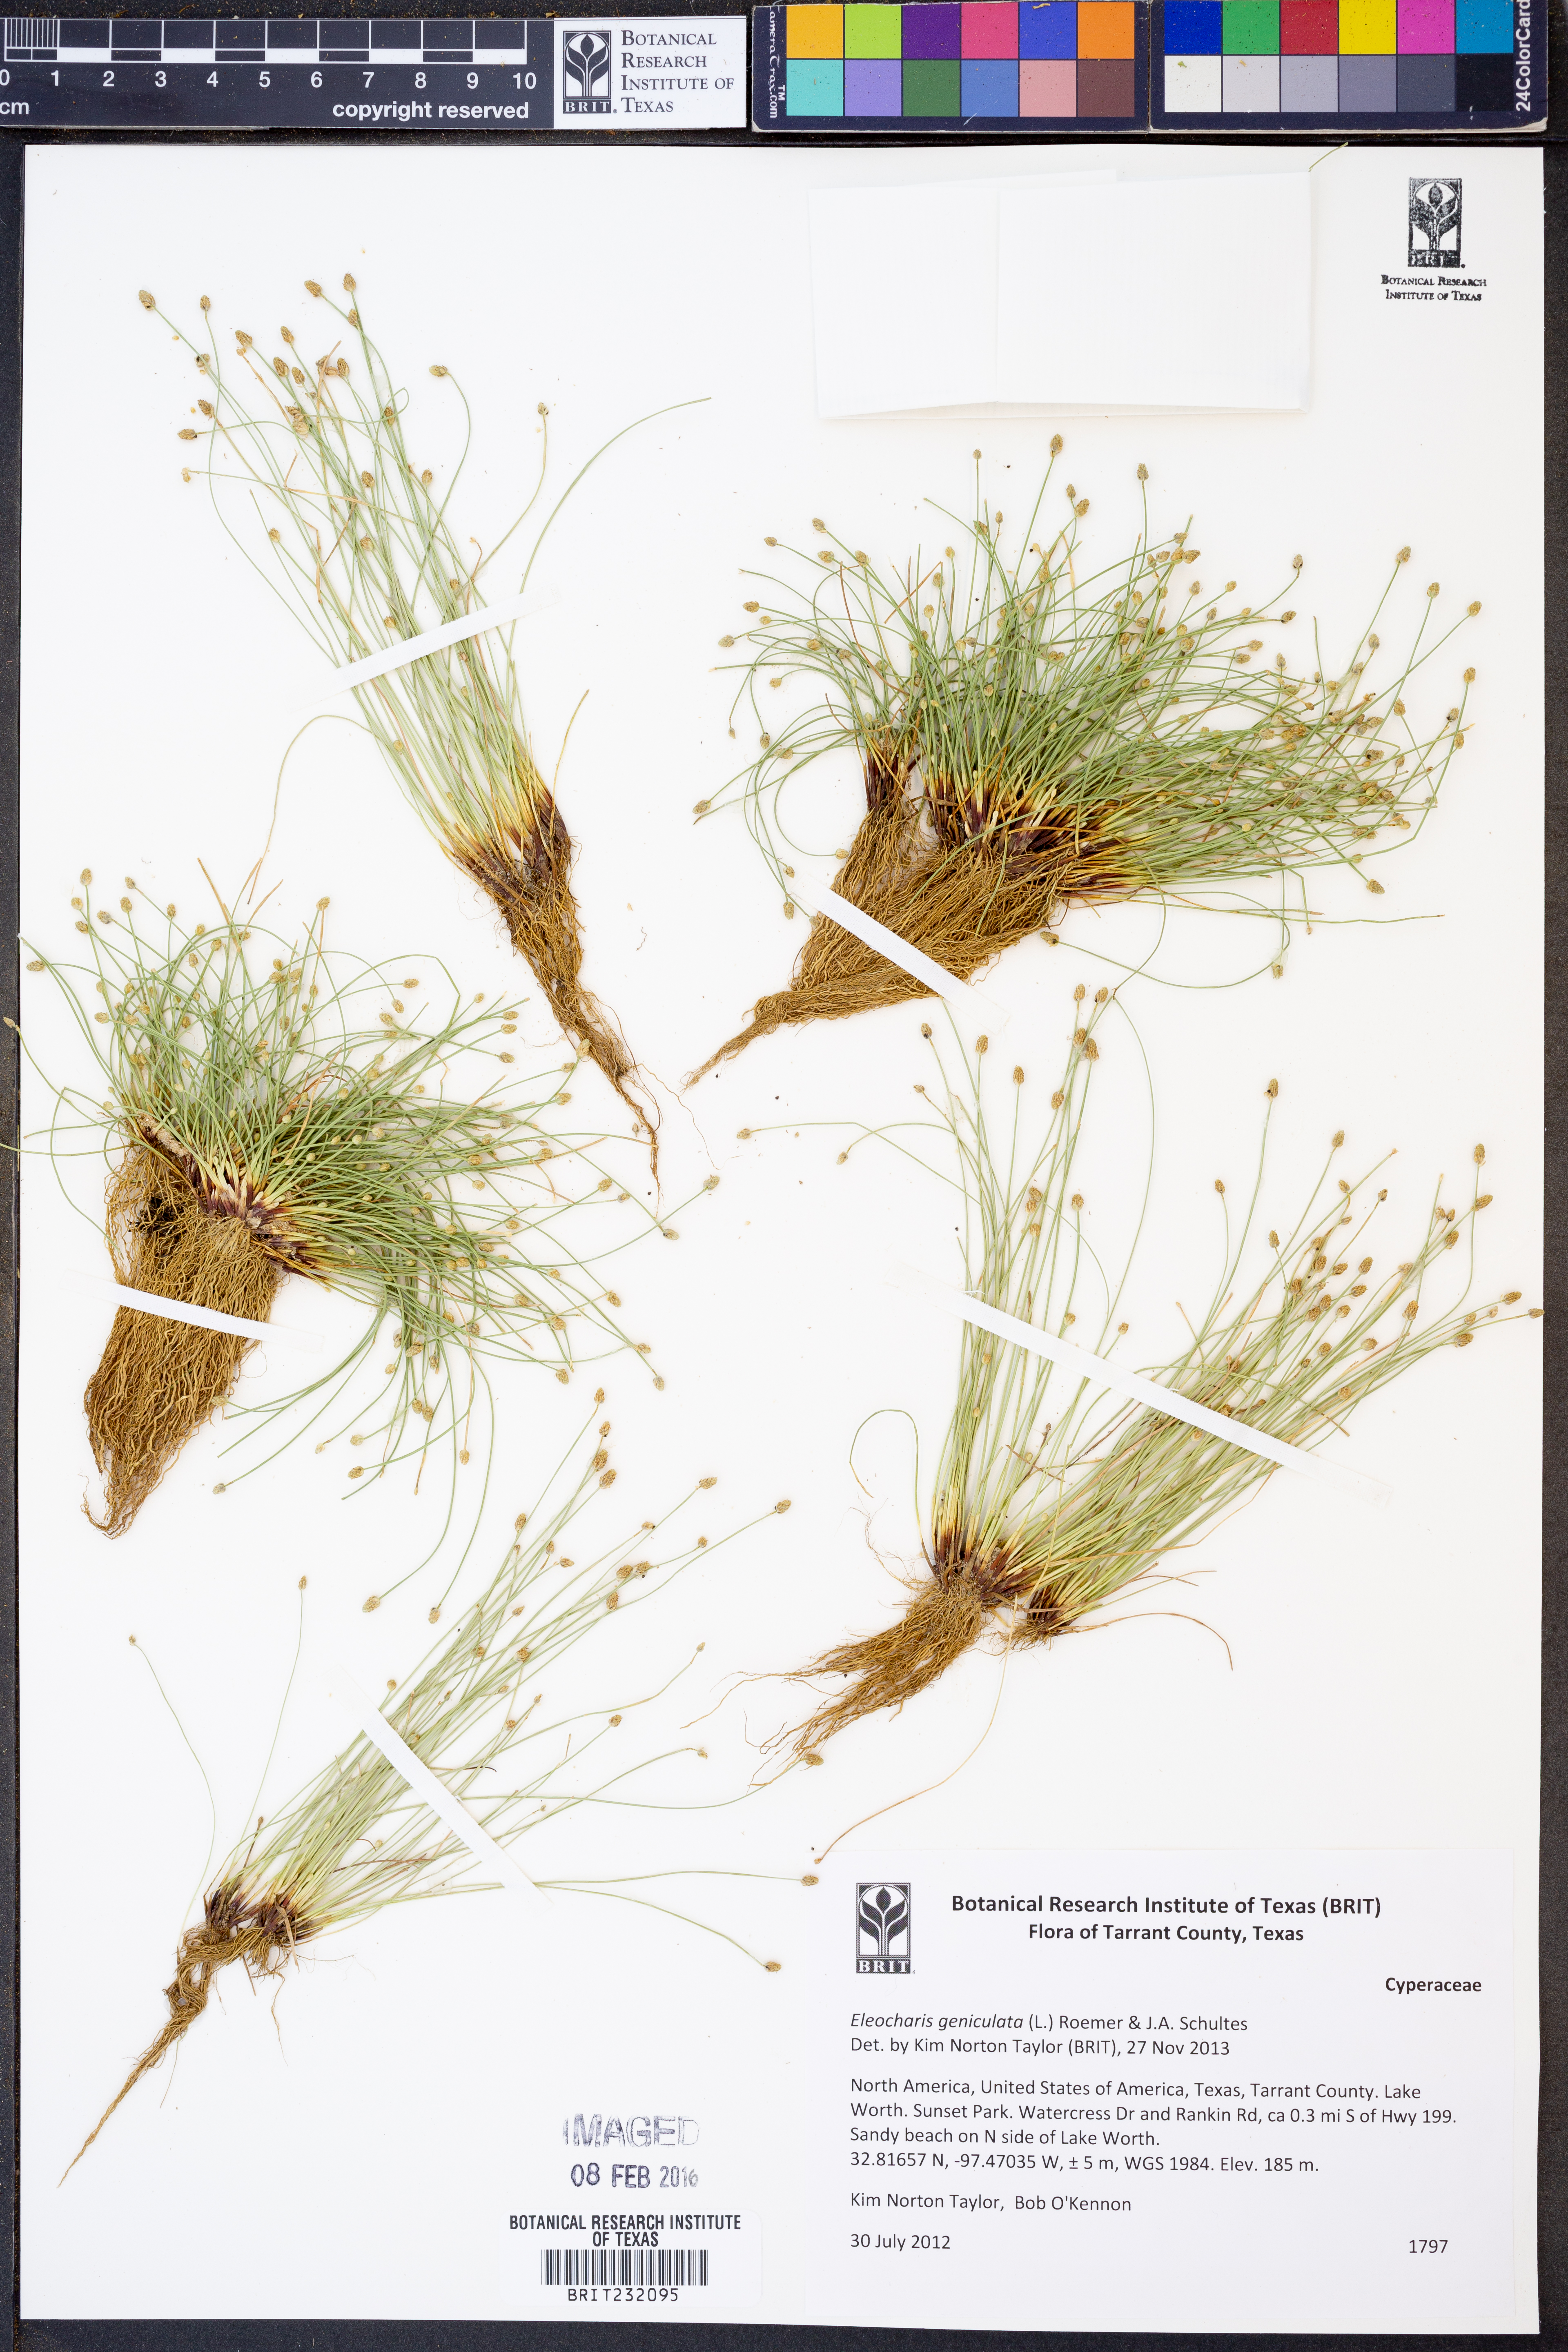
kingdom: Plantae
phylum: Tracheophyta
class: Liliopsida
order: Poales
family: Cyperaceae
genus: Eleocharis
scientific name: Eleocharis geniculata
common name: Canada spikesedge
